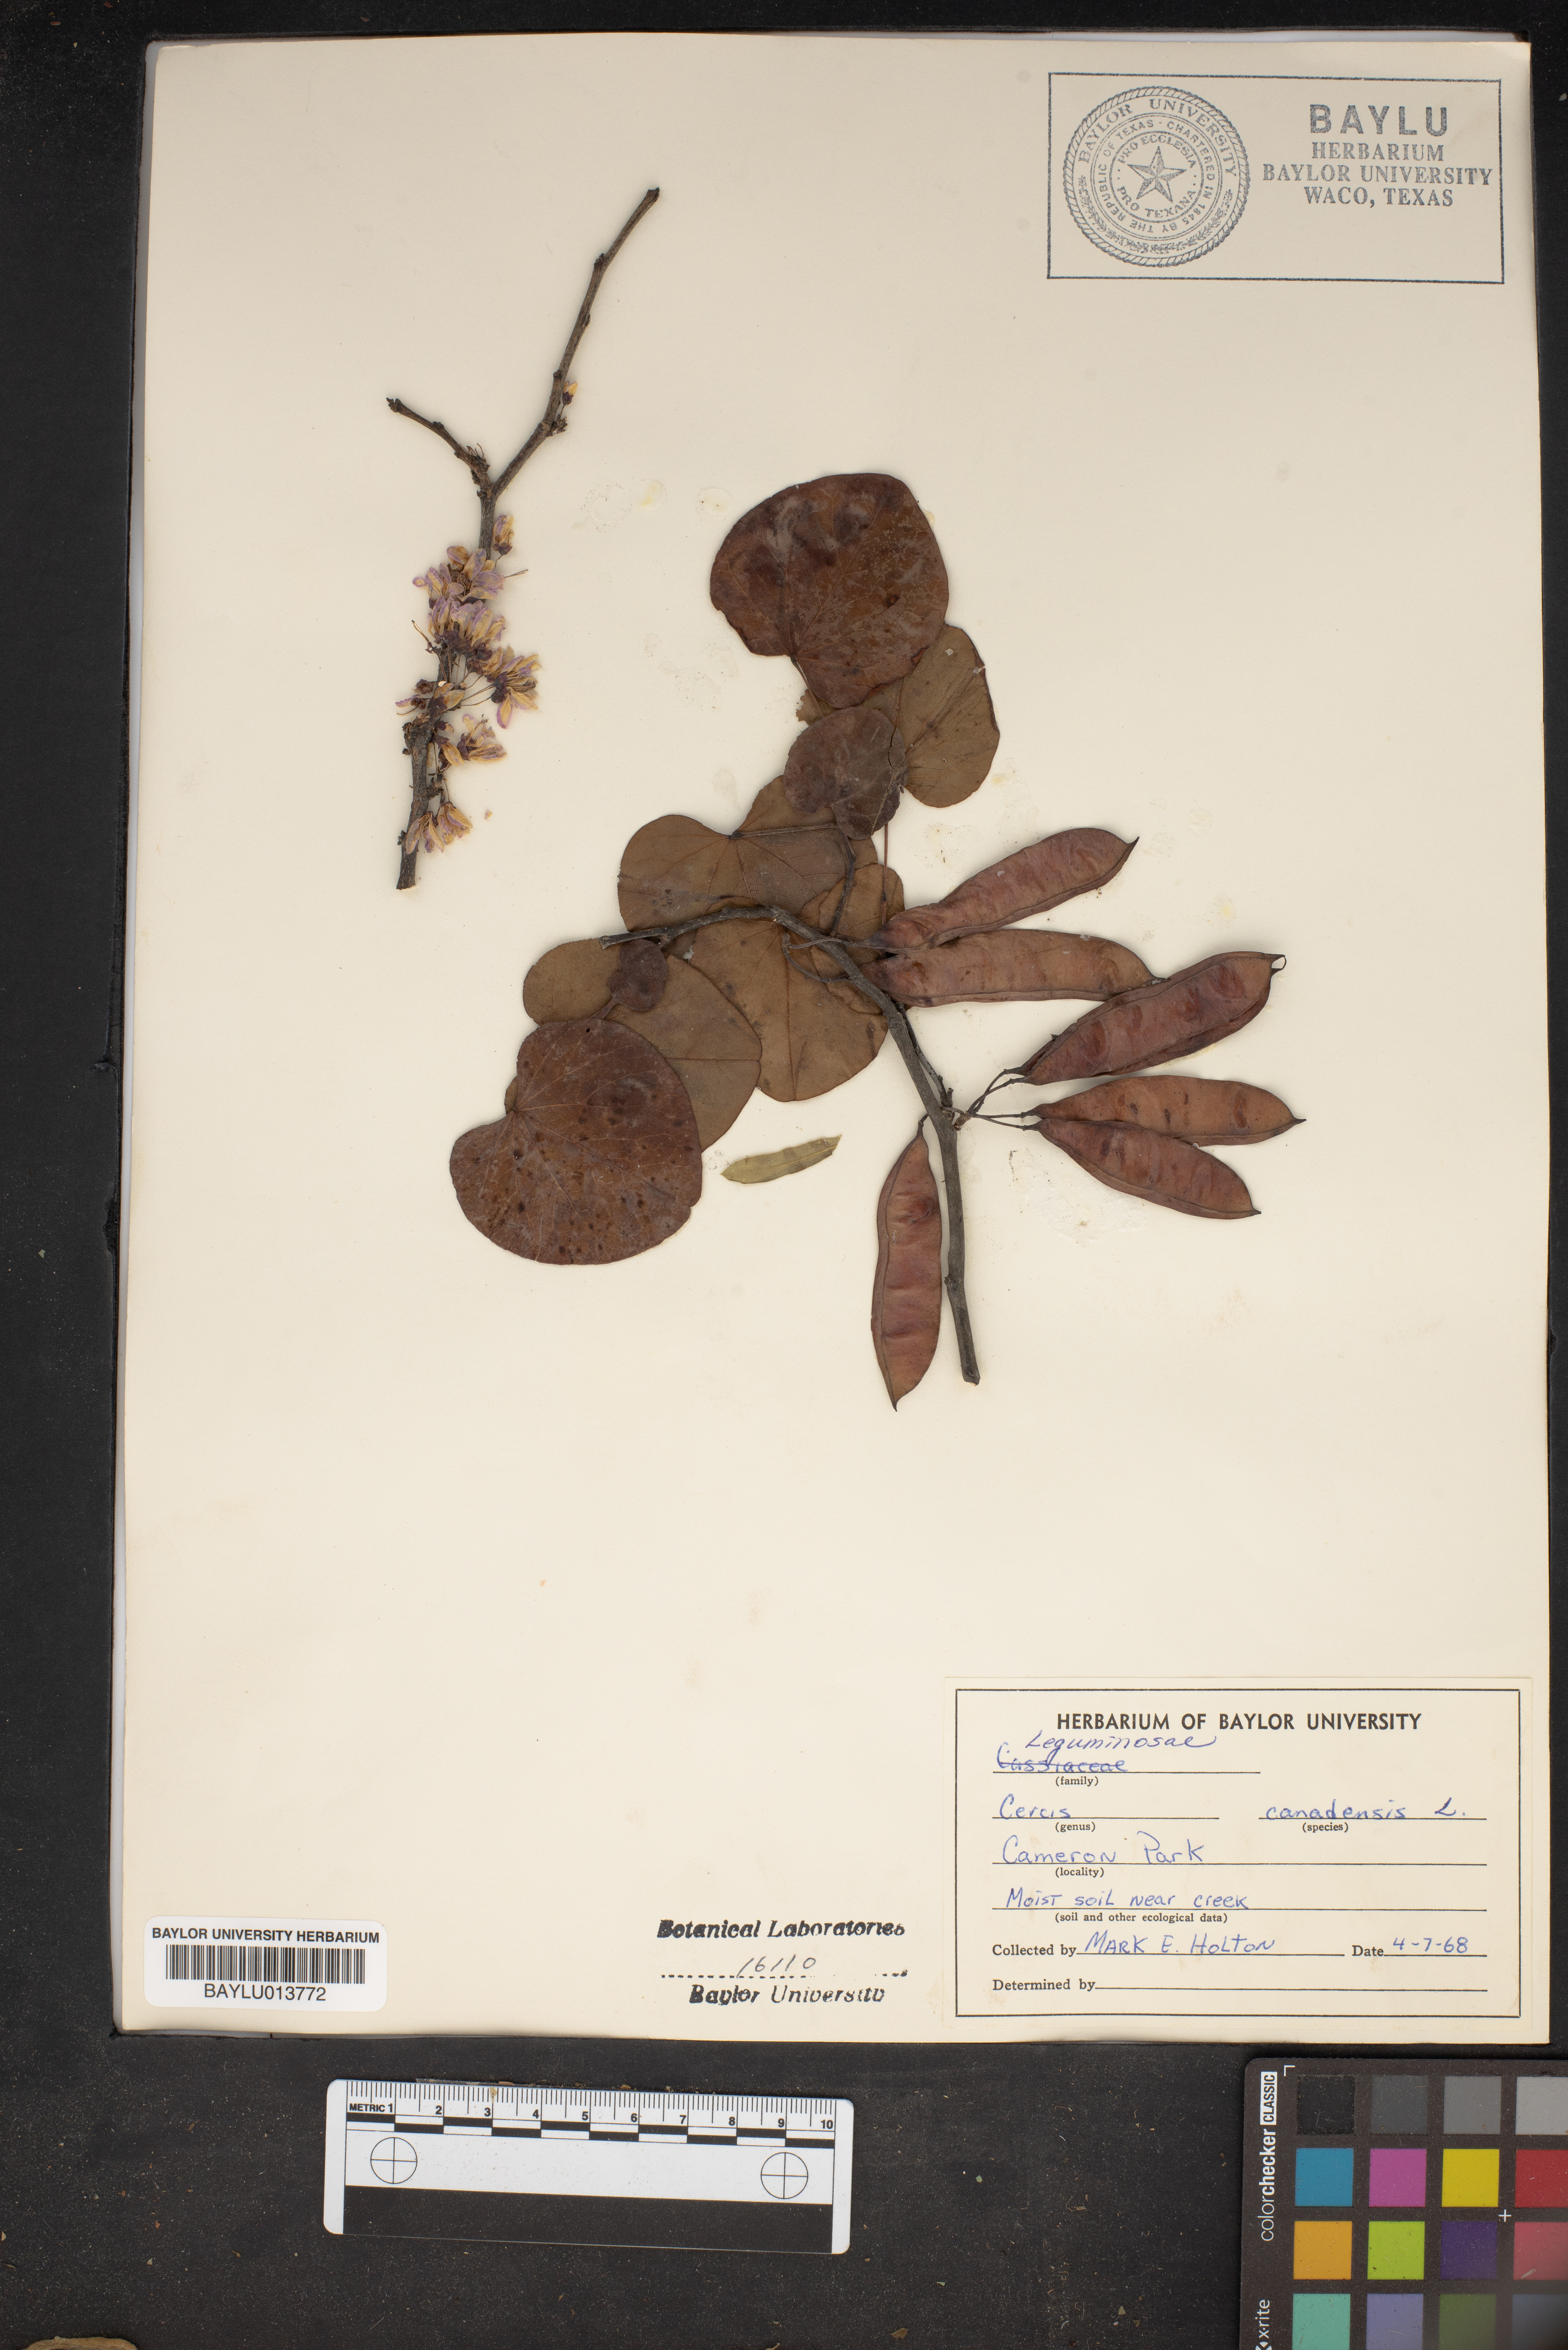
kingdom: Plantae
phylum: Tracheophyta
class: Magnoliopsida
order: Fabales
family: Fabaceae
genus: Cercis
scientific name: Cercis canadensis
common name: Eastern redbud
